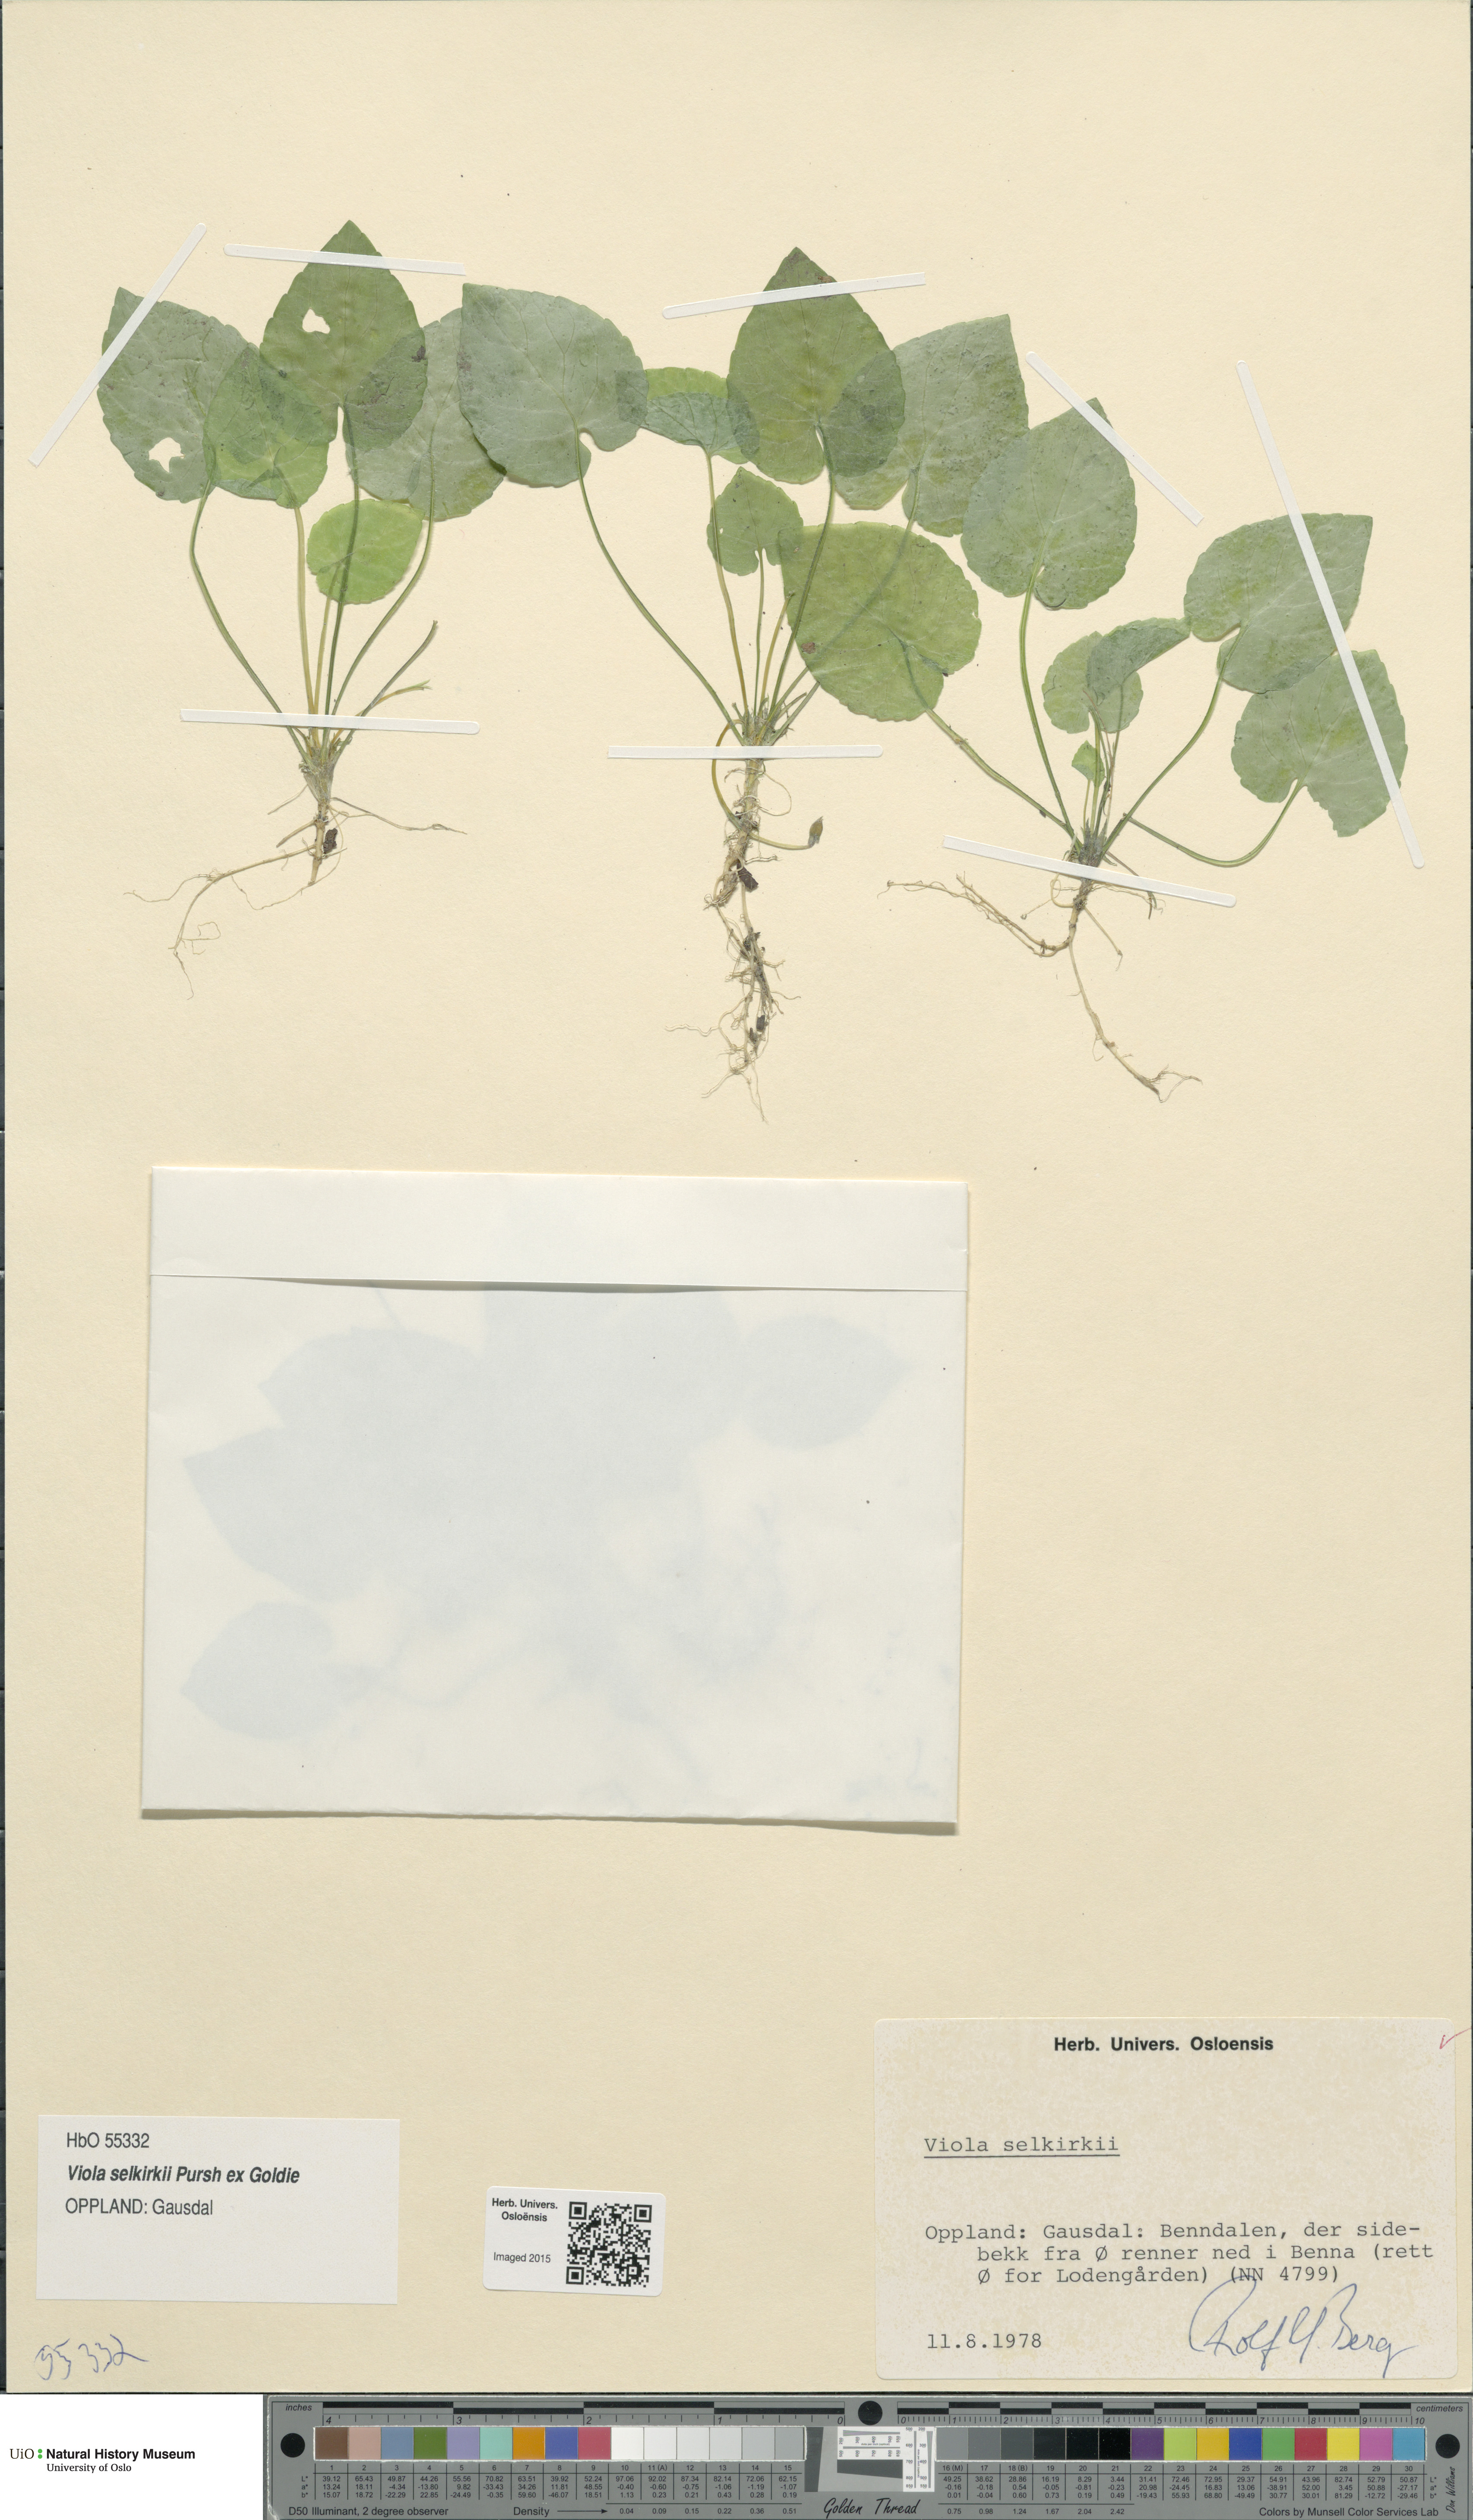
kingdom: Plantae
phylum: Tracheophyta
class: Magnoliopsida
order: Malpighiales
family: Violaceae
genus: Viola
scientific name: Viola selkirkii
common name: Selkirk's violet
